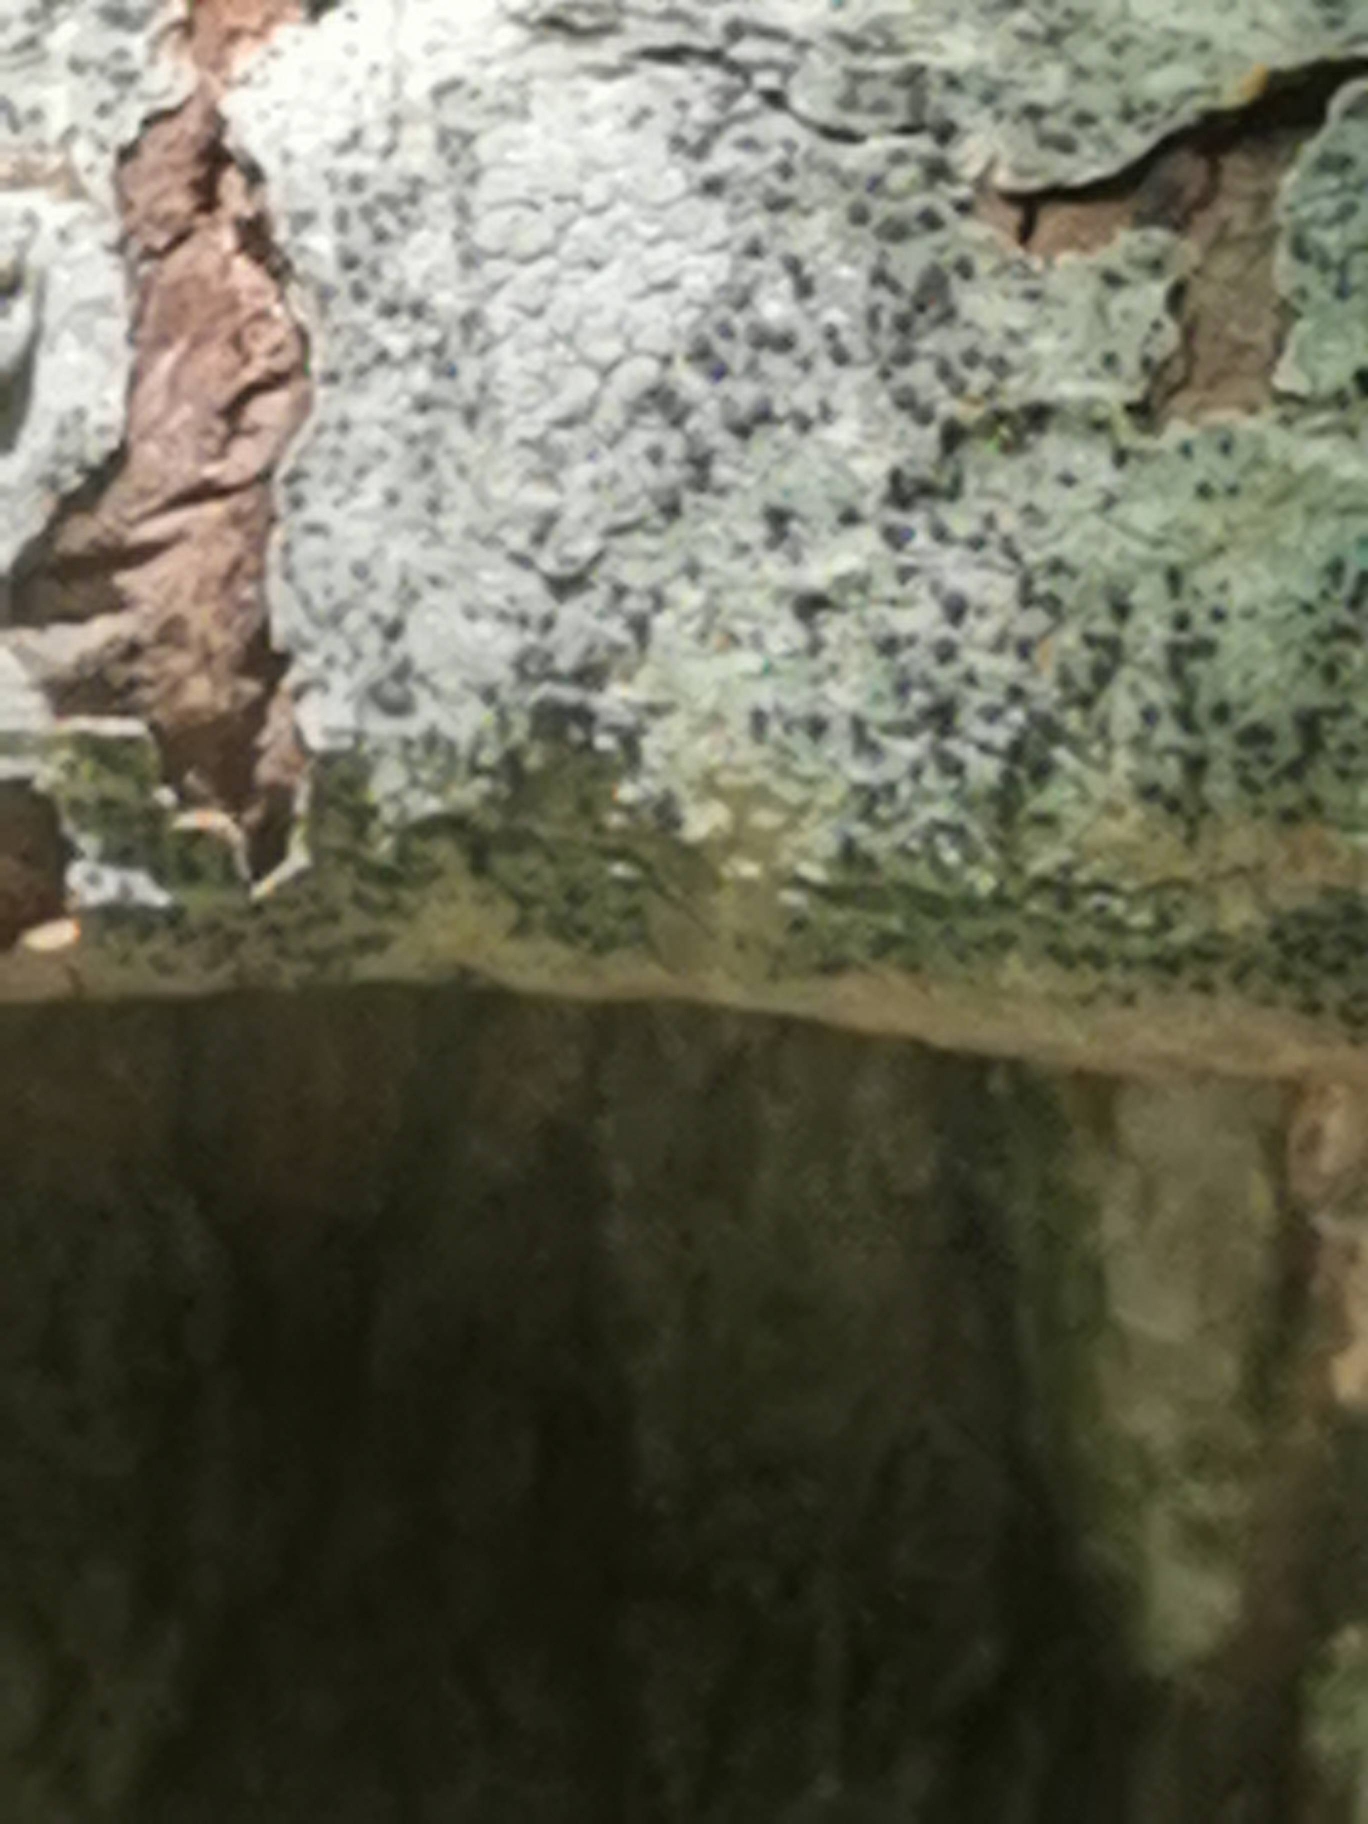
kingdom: Fungi
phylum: Ascomycota
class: Lecanoromycetes
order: Lecanorales
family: Lecanoraceae
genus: Lecidella
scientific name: Lecidella elaeochroma
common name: Grågrøn skivelav
